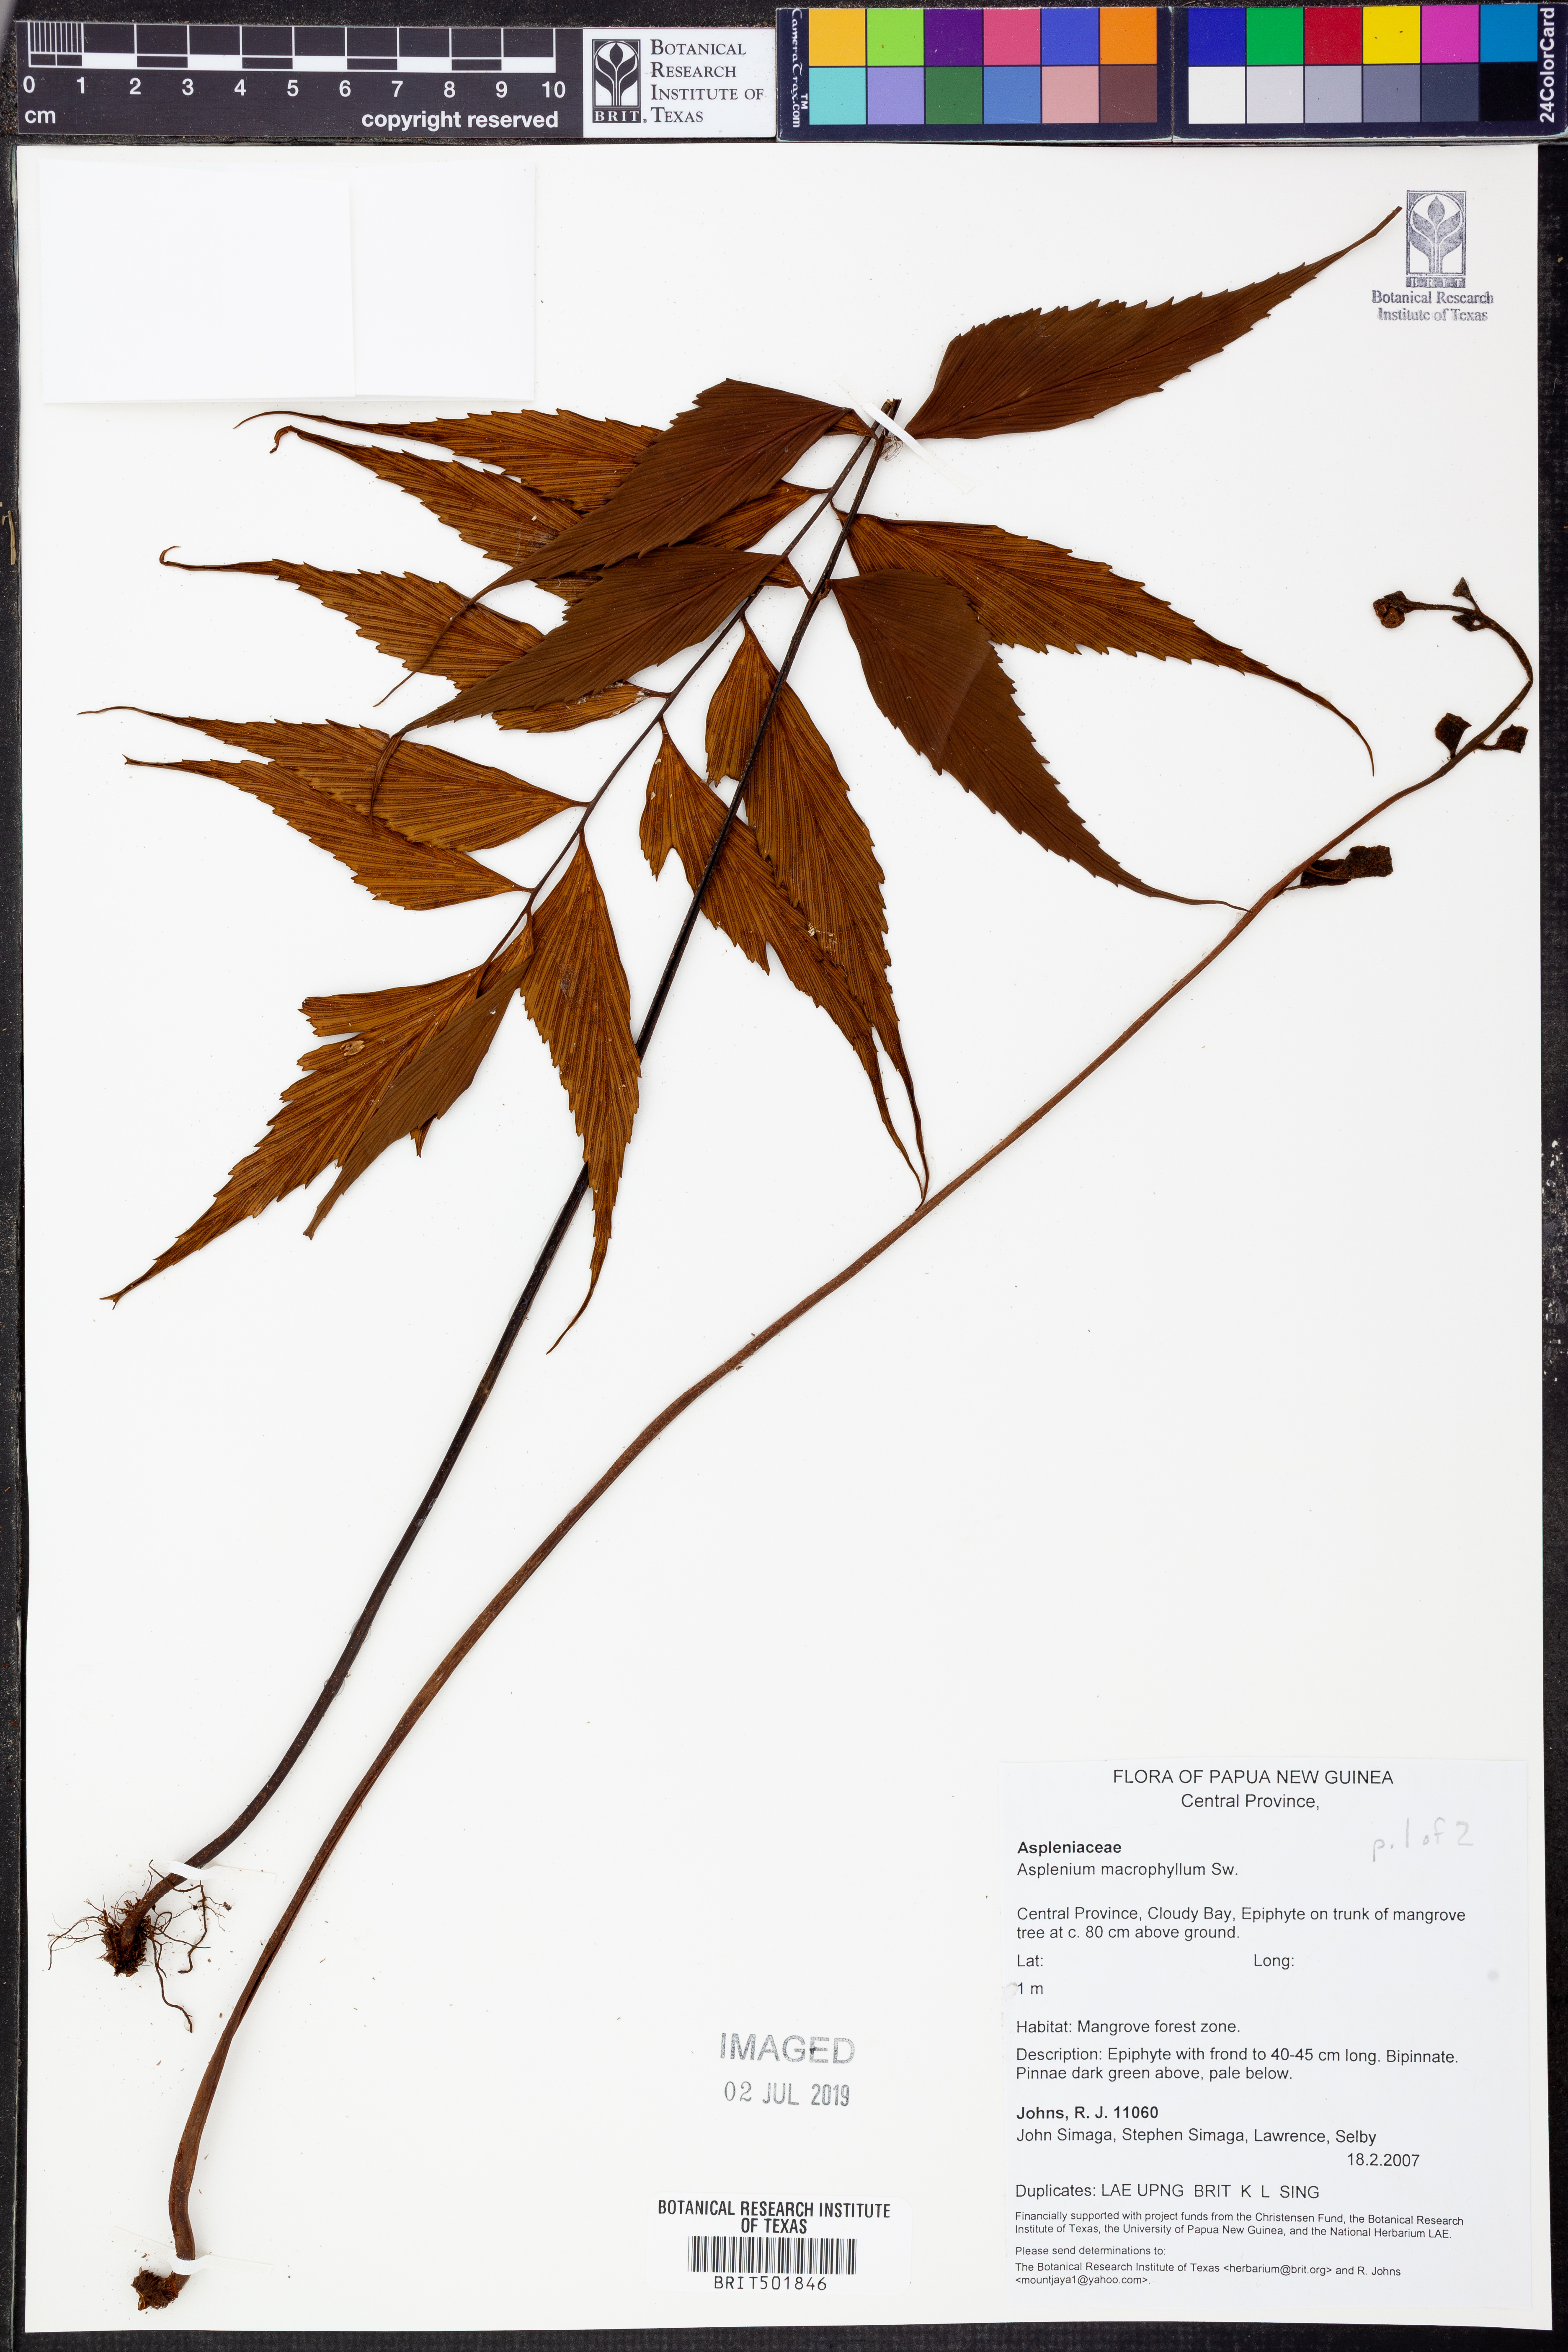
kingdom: Plantae
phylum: Tracheophyta
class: Polypodiopsida
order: Polypodiales
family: Aspleniaceae
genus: Asplenium
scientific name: Asplenium macrophyllum
